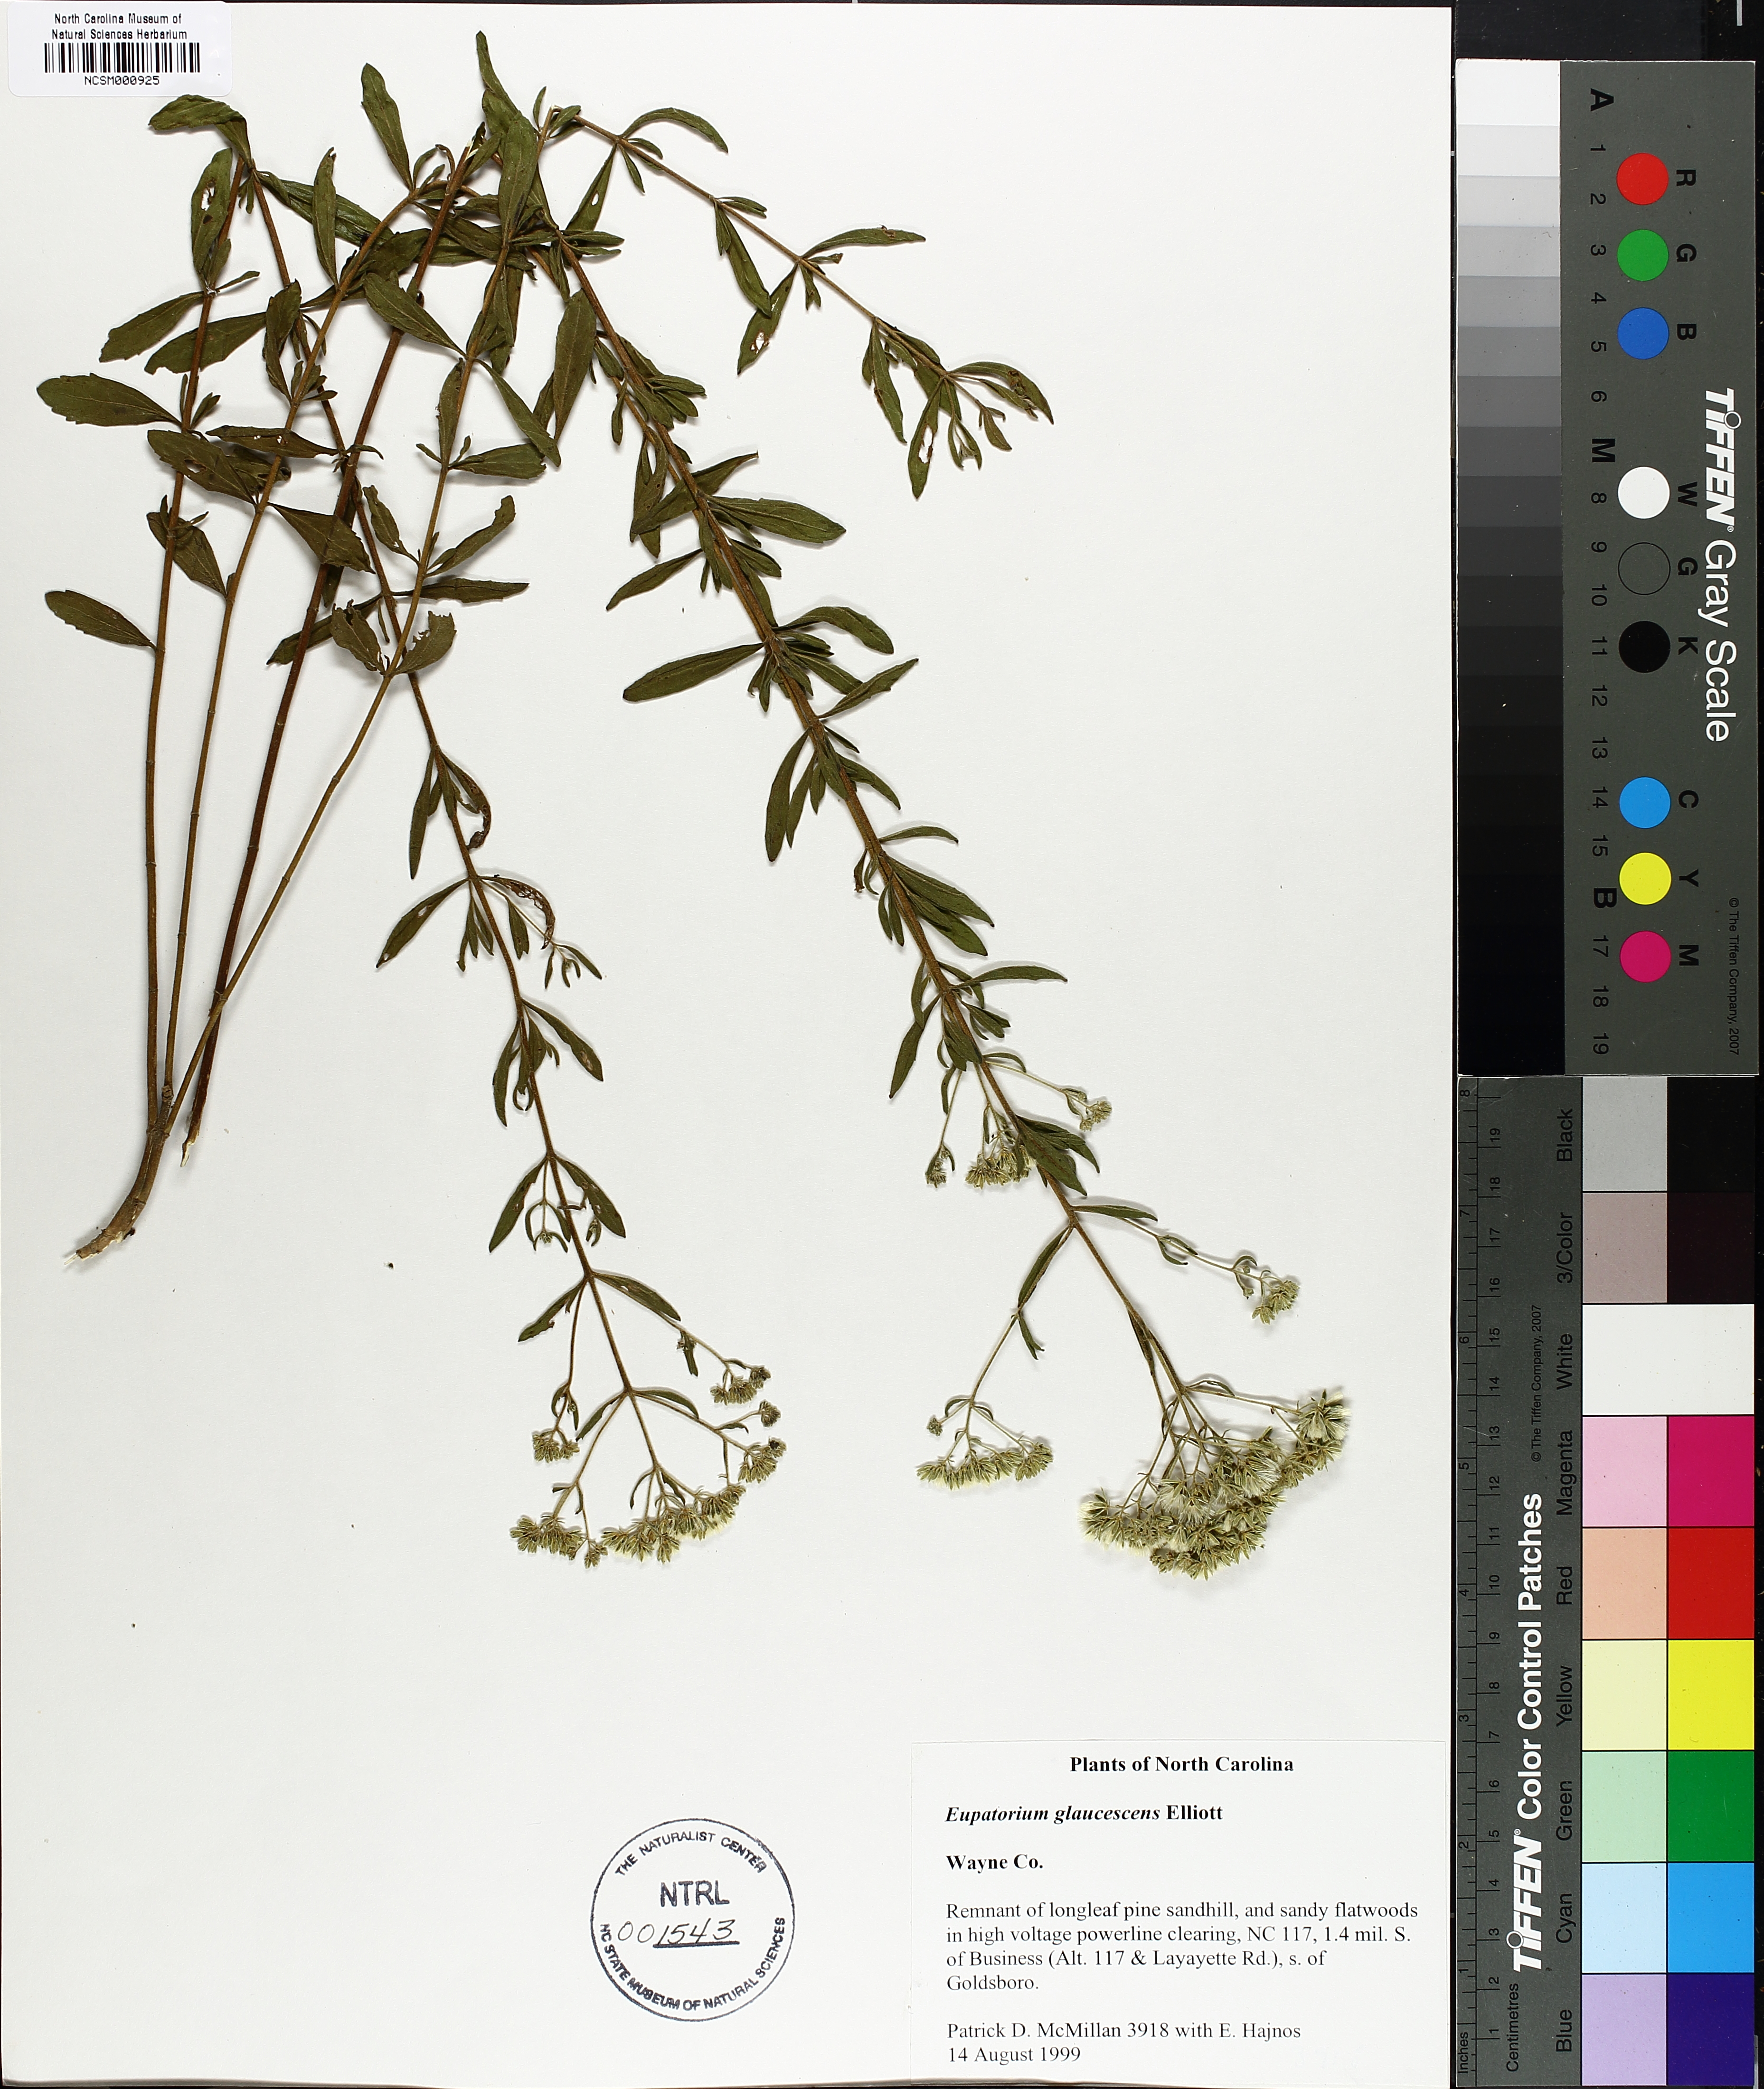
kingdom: Plantae
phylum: Tracheophyta
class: Magnoliopsida
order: Asterales
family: Asteraceae
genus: Eupatorium
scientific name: Eupatorium linearifolium
